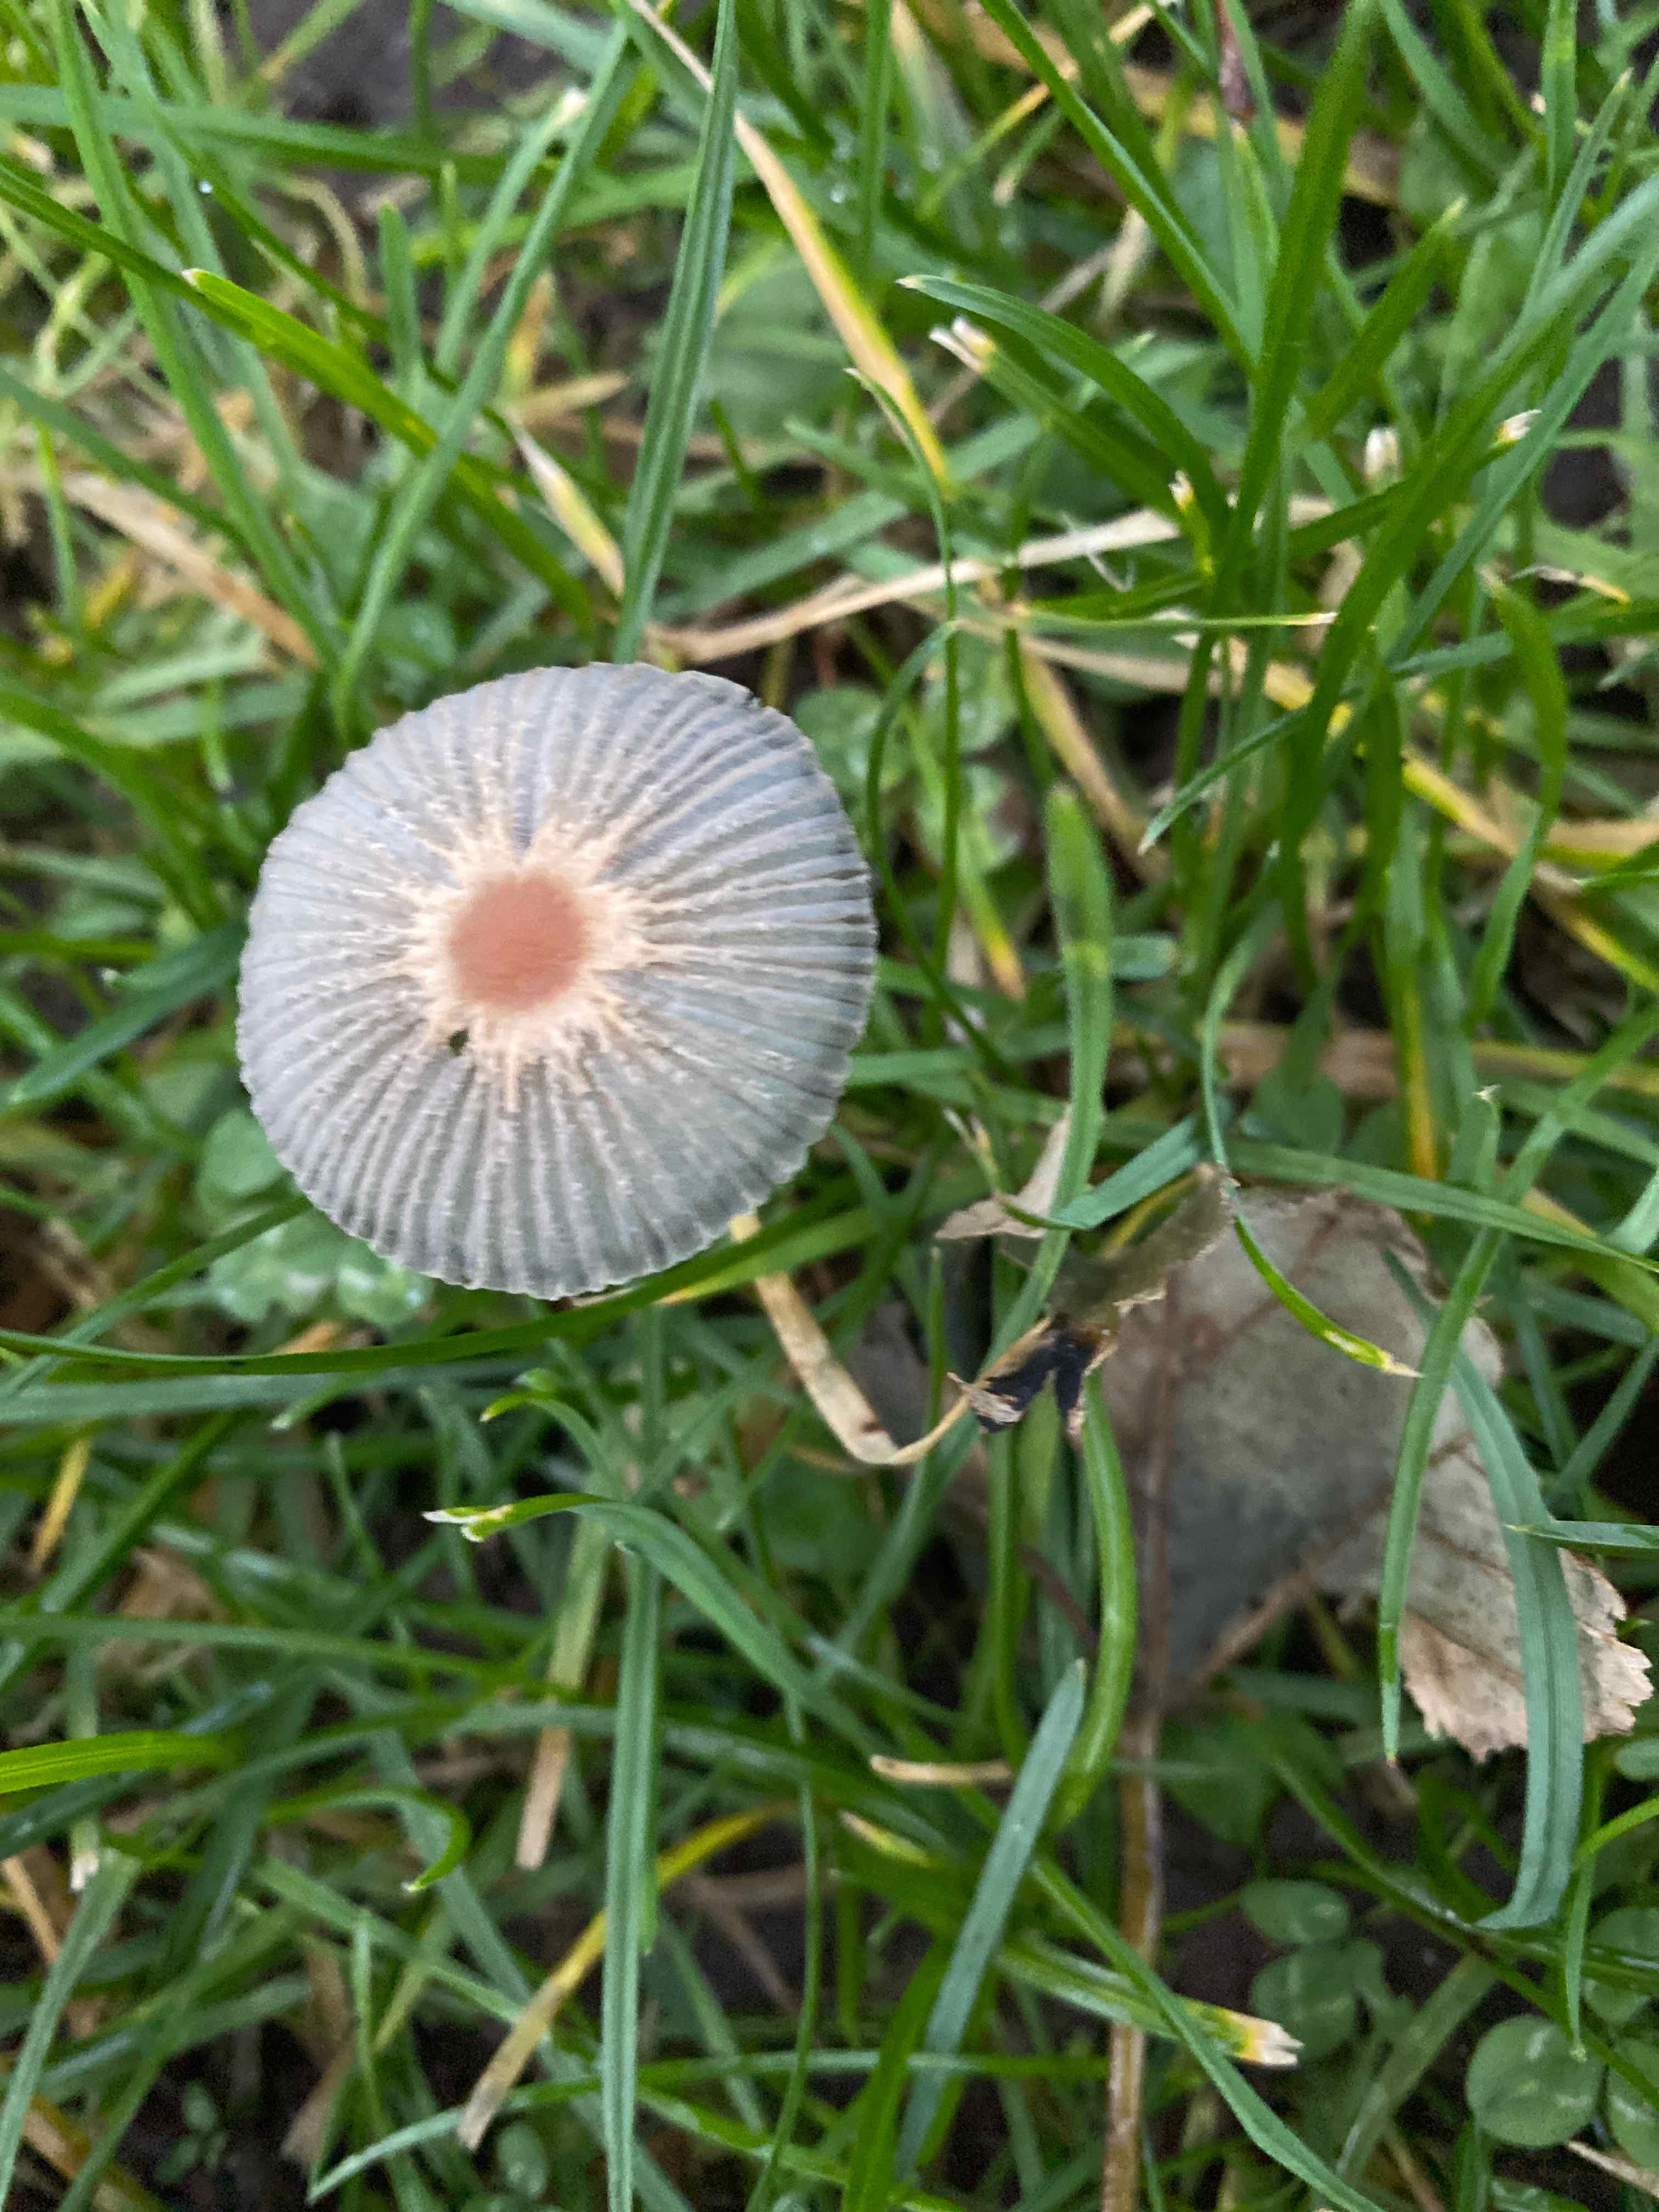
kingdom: Fungi
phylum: Basidiomycota
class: Agaricomycetes
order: Agaricales
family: Psathyrellaceae
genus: Parasola
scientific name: Parasola
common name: hjulhat
